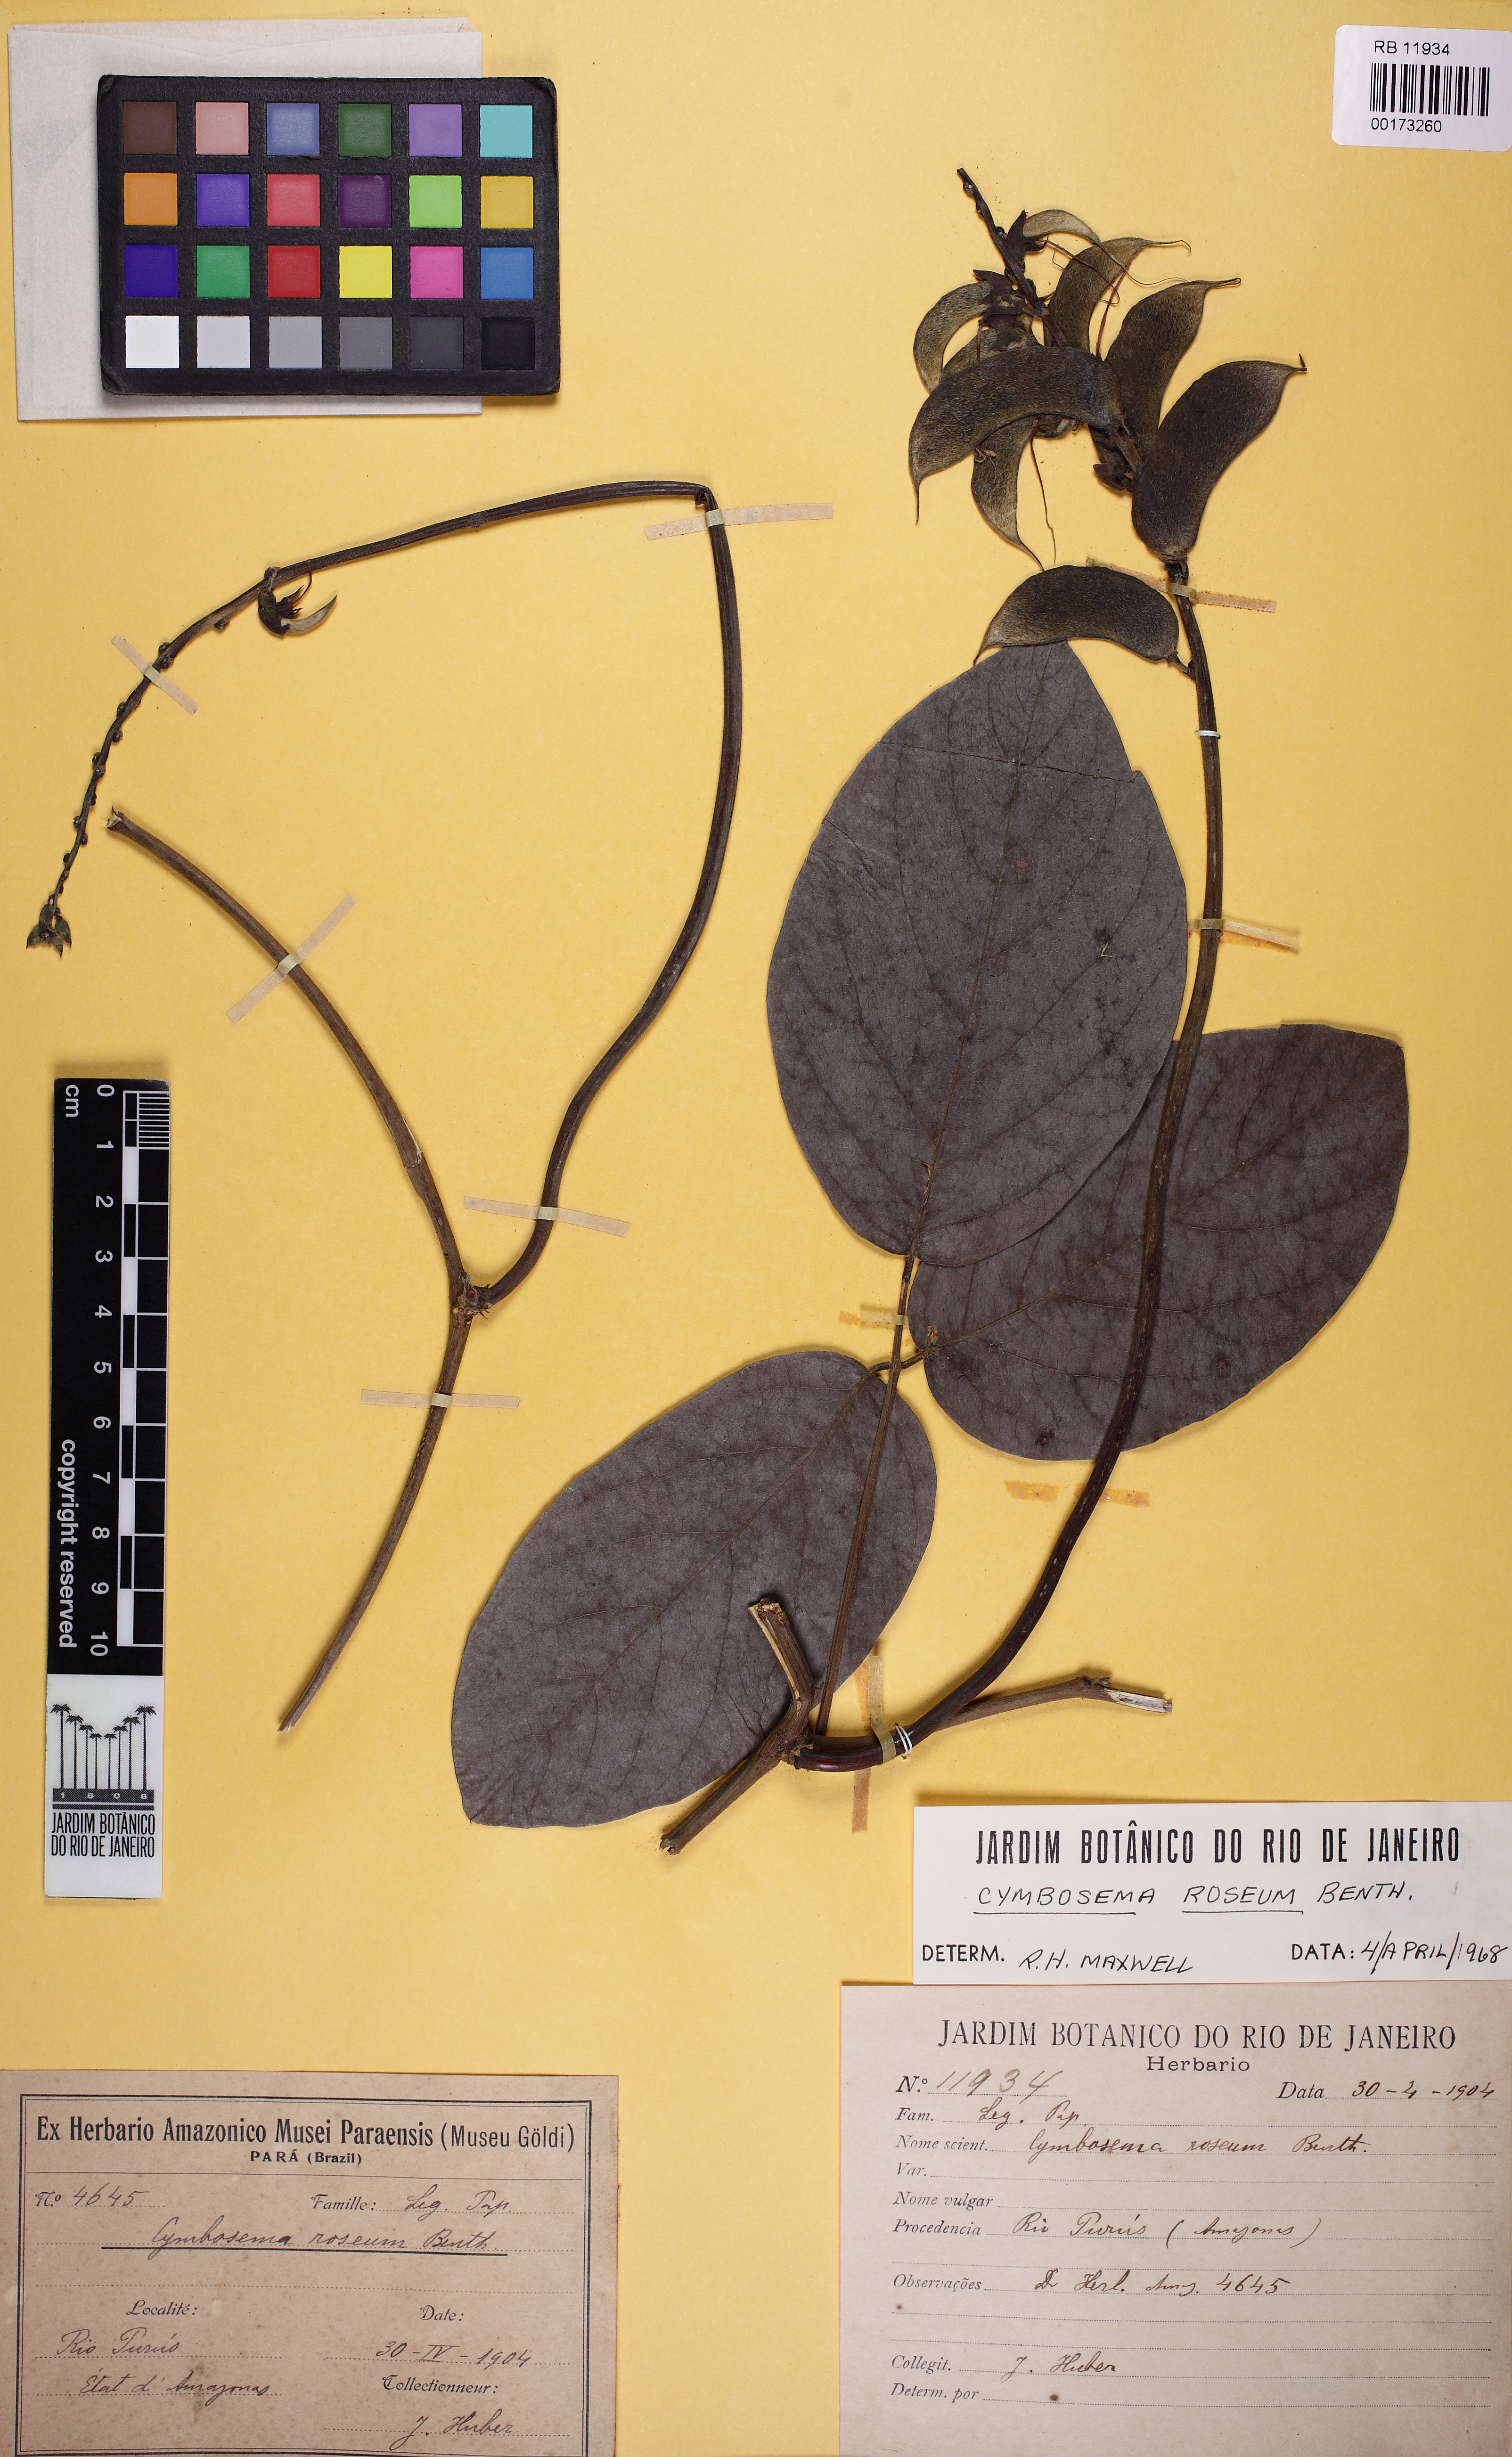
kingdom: Plantae
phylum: Tracheophyta
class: Magnoliopsida
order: Fabales
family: Fabaceae
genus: Cymbosema
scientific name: Cymbosema roseum
